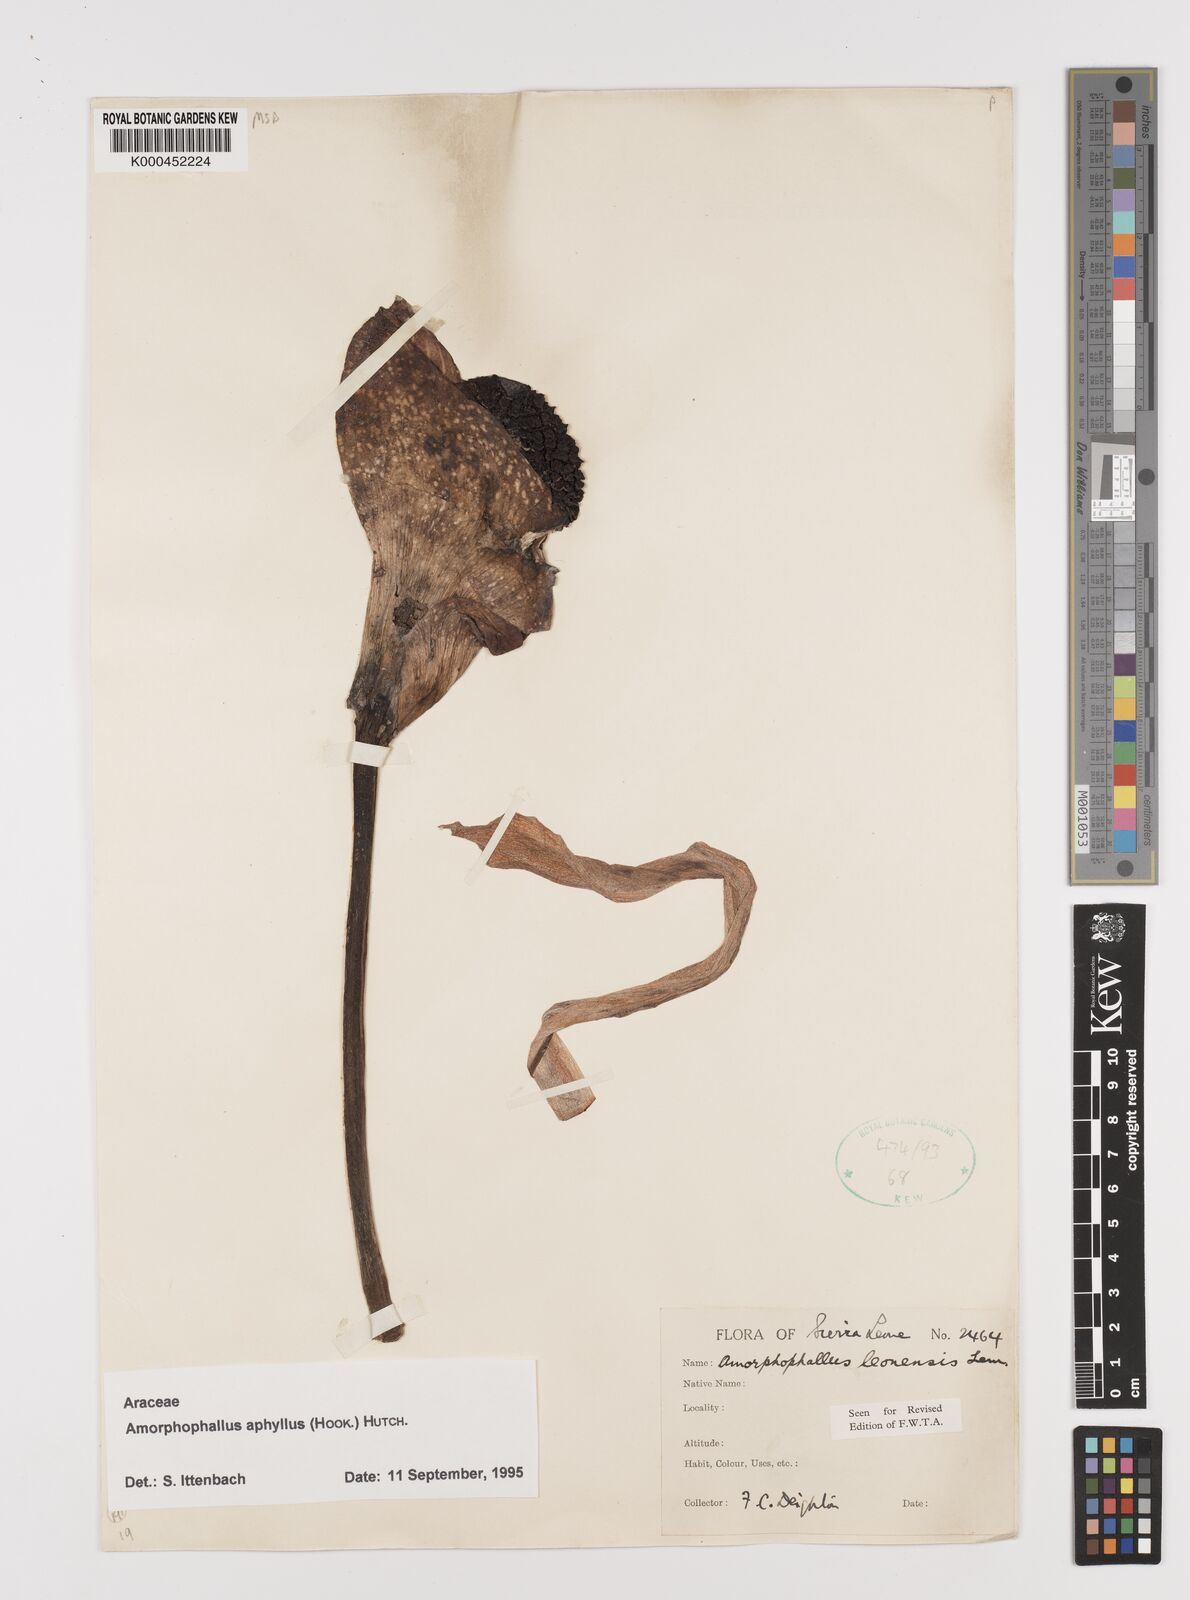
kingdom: Plantae
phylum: Tracheophyta
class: Liliopsida
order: Alismatales
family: Araceae
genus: Amorphophallus
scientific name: Amorphophallus aphyllus
